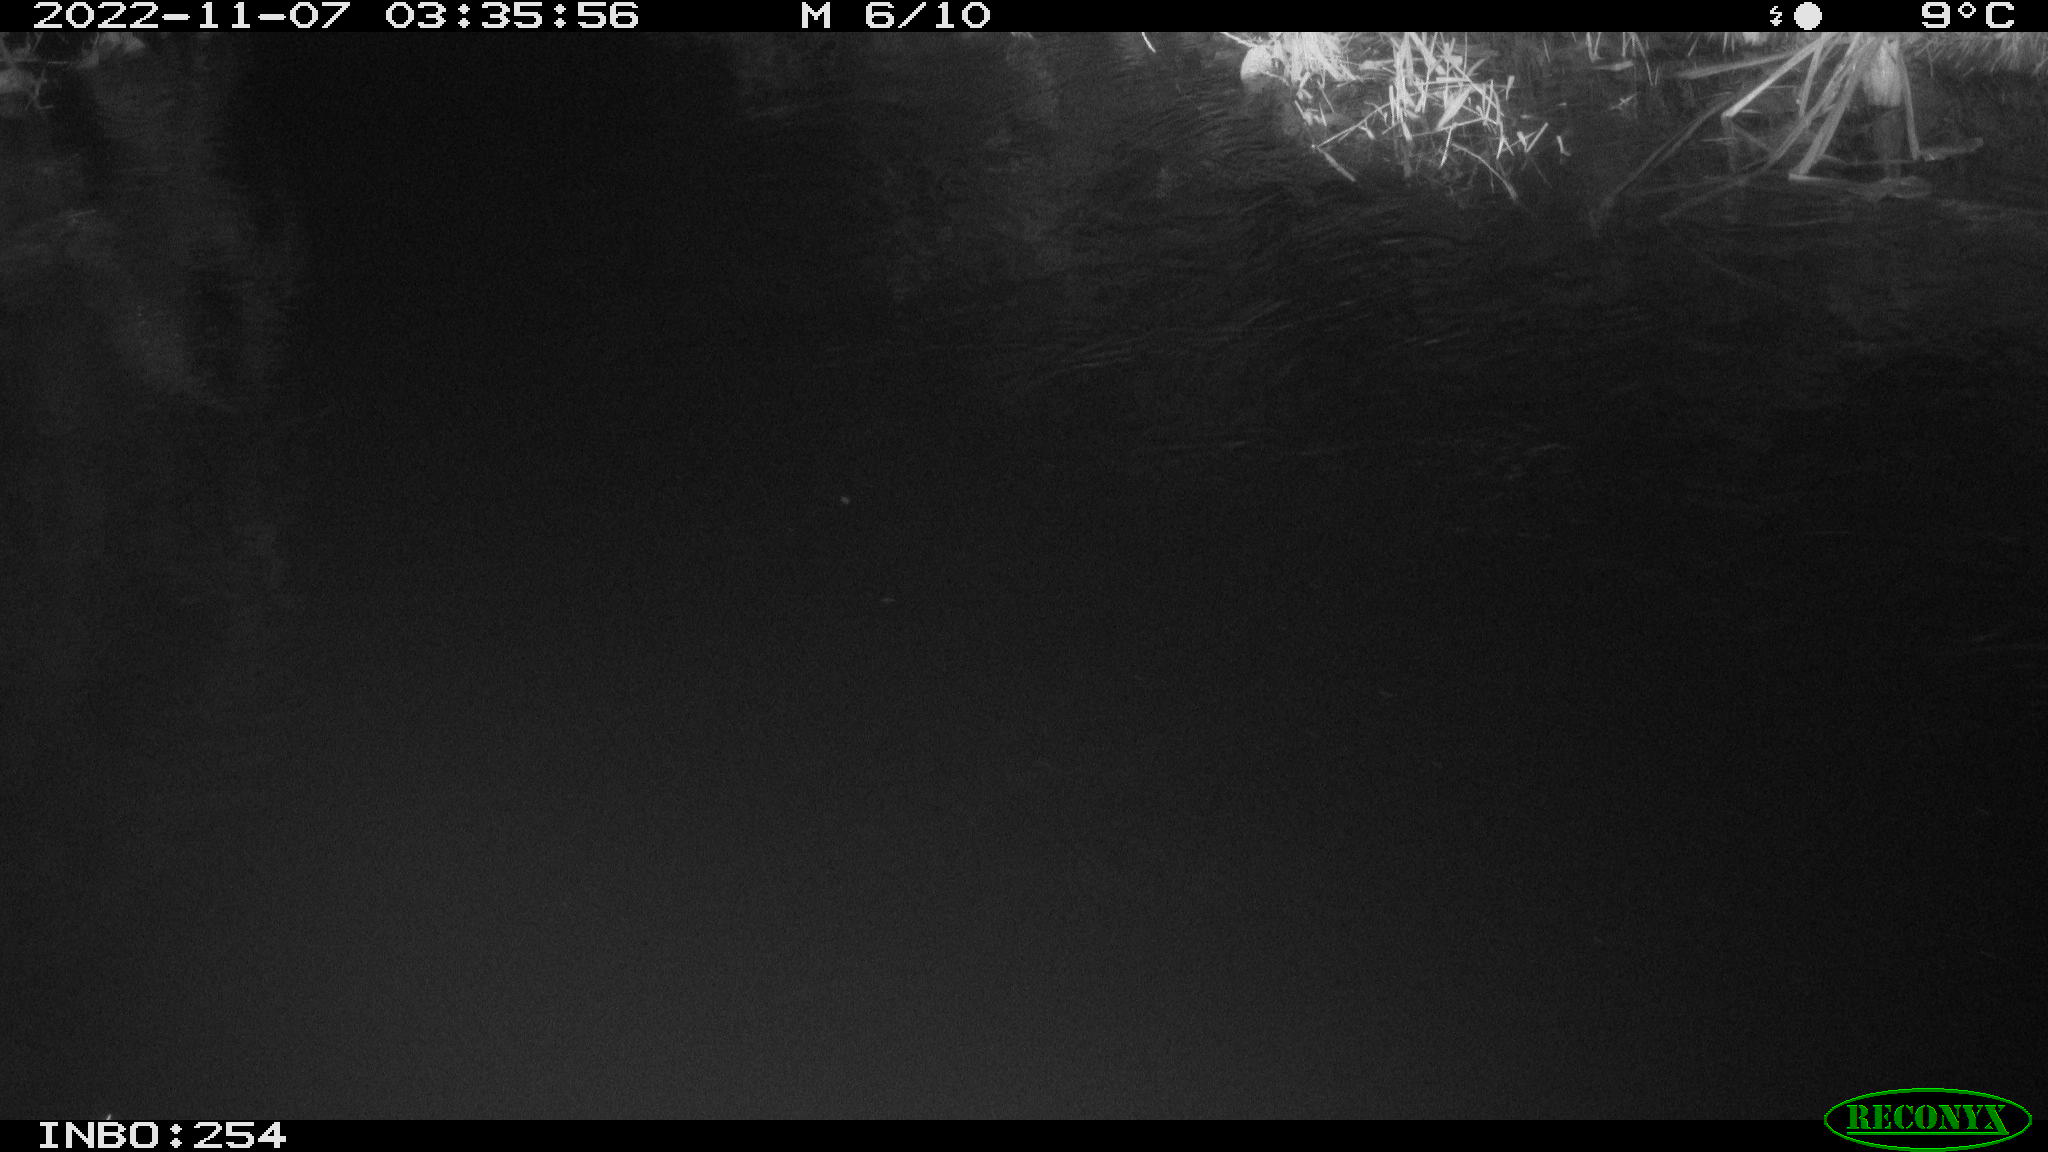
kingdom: Animalia
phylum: Chordata
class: Aves
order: Anseriformes
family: Anatidae
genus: Anas
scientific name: Anas
